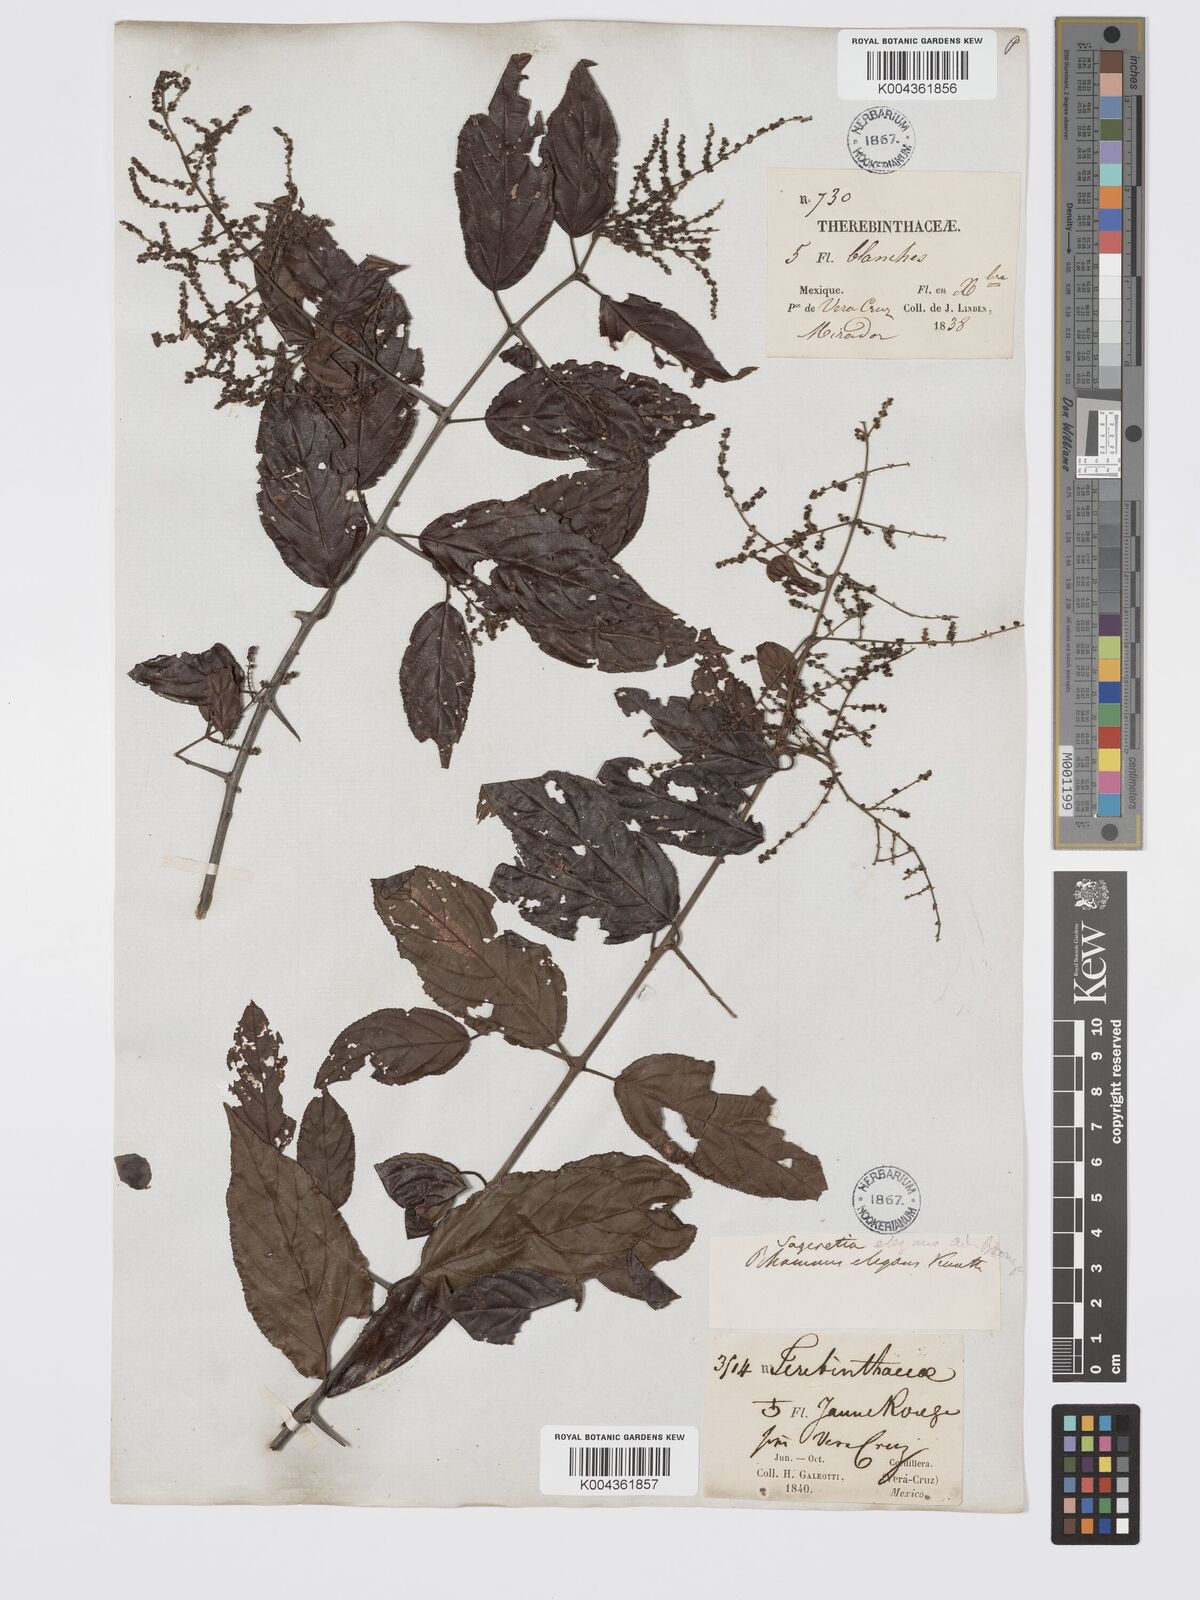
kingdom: Plantae
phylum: Tracheophyta
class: Magnoliopsida
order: Rosales
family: Rhamnaceae
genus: Sageretia
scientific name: Sageretia elegans
